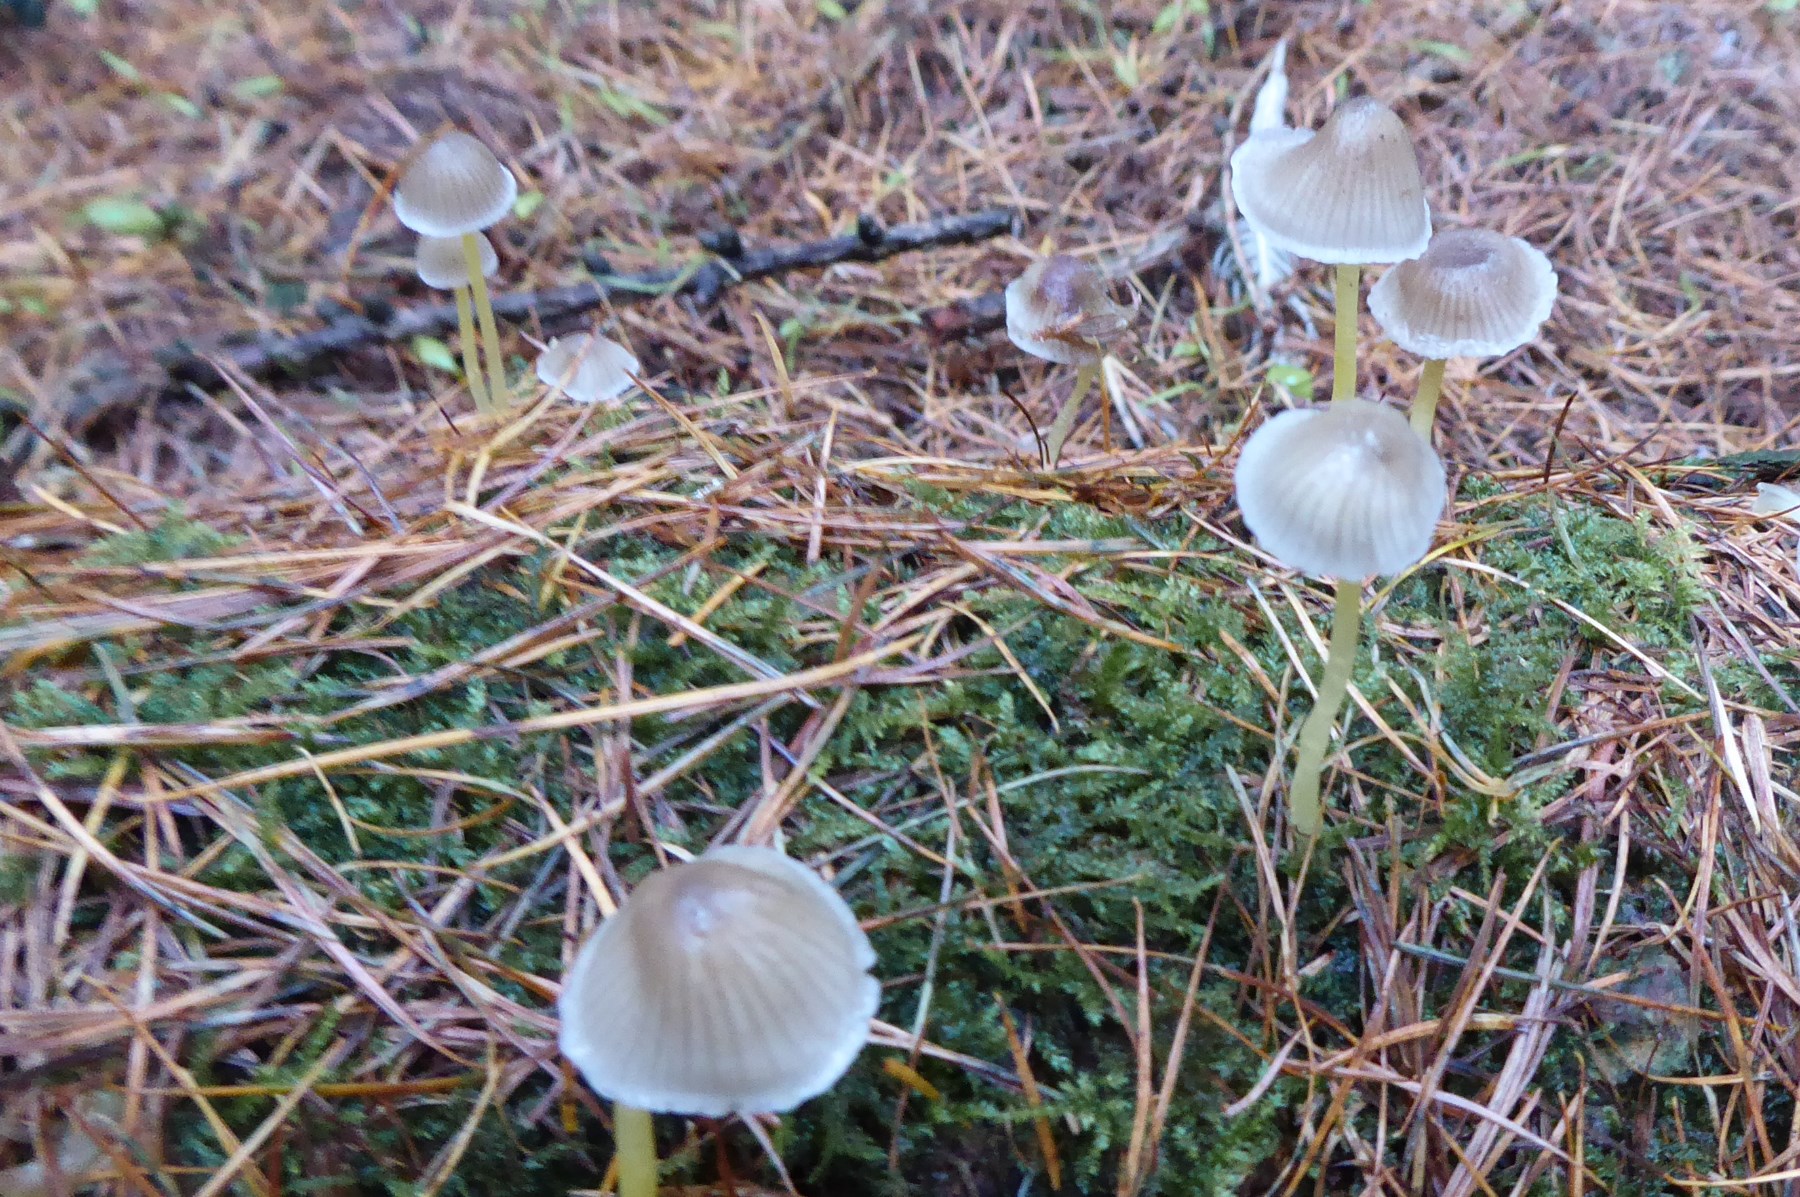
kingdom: Fungi
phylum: Basidiomycota
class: Agaricomycetes
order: Agaricales
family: Mycenaceae
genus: Mycena
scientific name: Mycena epipterygia
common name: gulstokket huesvamp
